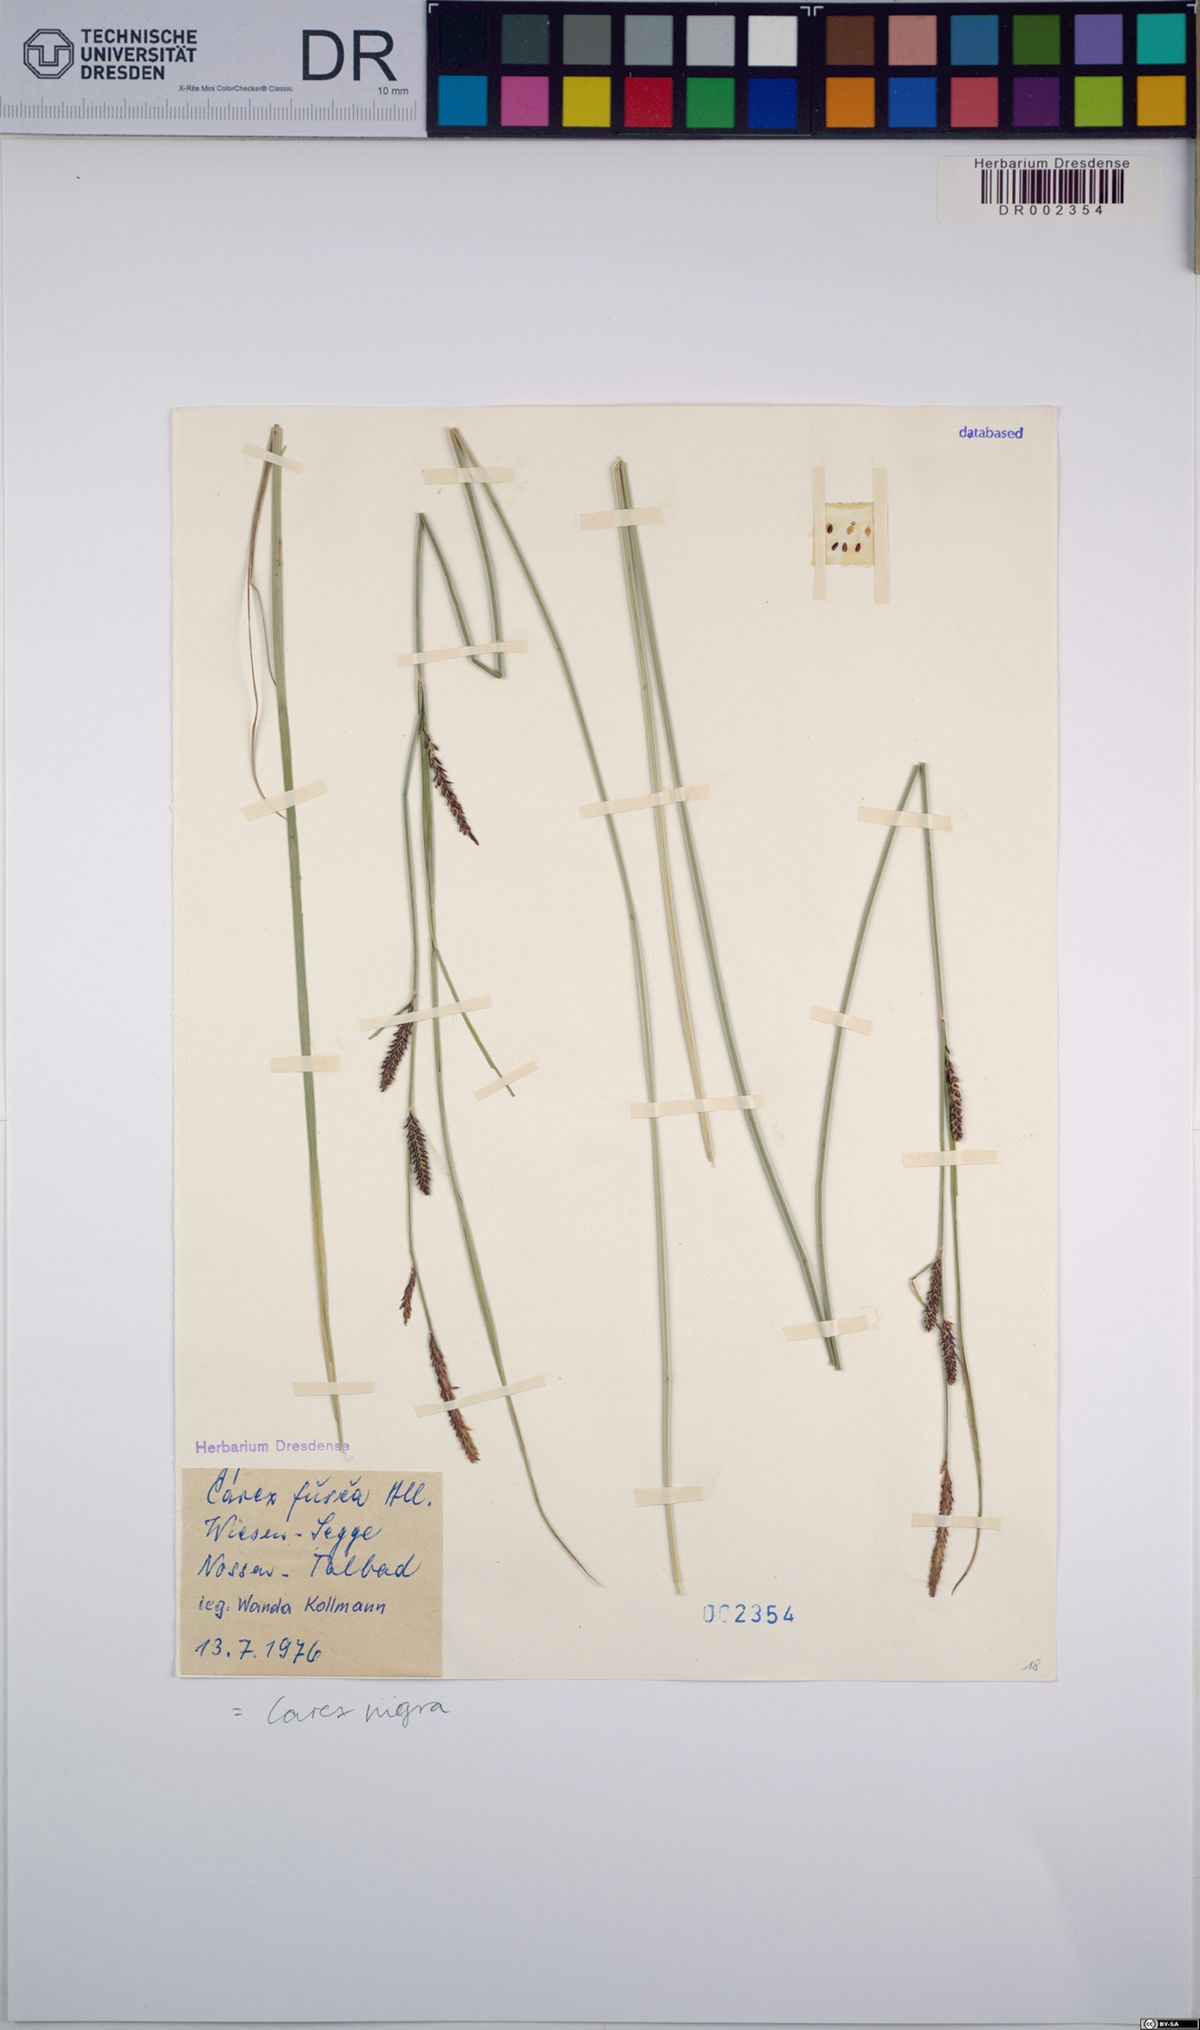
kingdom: Plantae
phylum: Tracheophyta
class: Liliopsida
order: Poales
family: Cyperaceae
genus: Carex
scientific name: Carex nigra
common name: Common sedge
